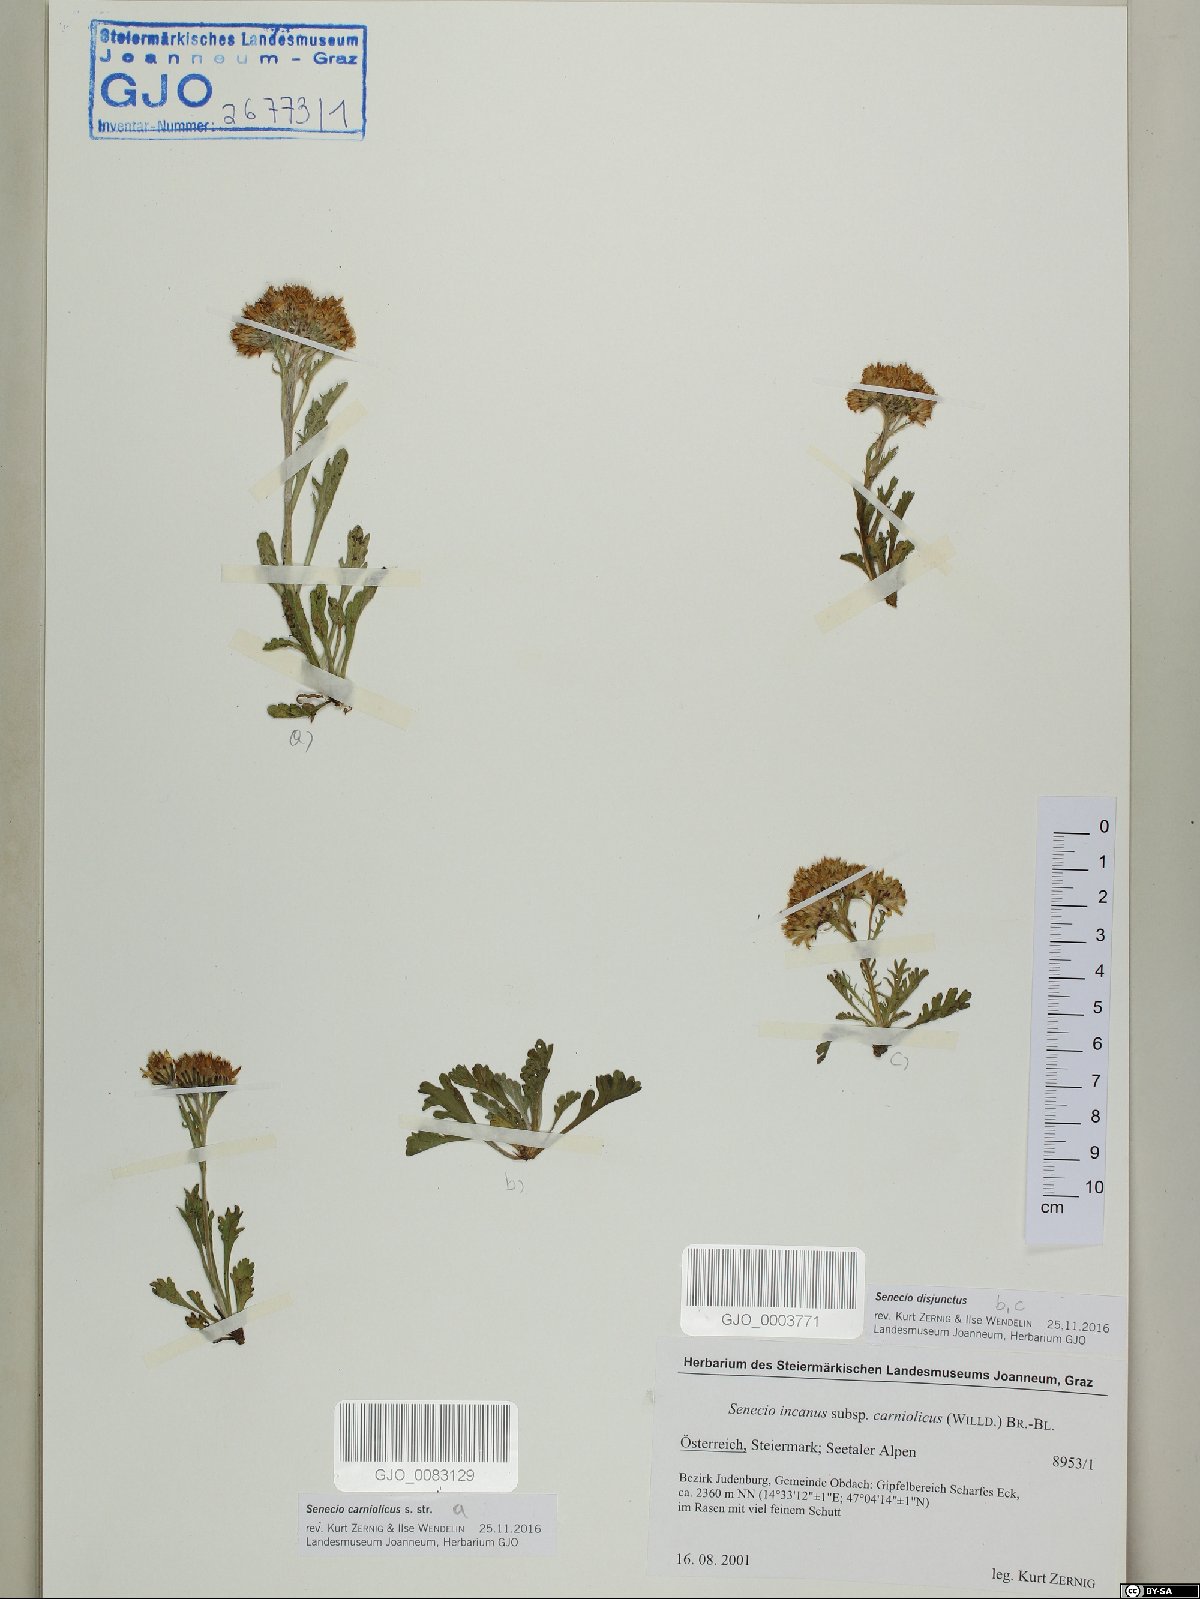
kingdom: Plantae
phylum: Tracheophyta
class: Magnoliopsida
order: Asterales
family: Asteraceae
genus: Jacobaea
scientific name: Jacobaea disjuncta
